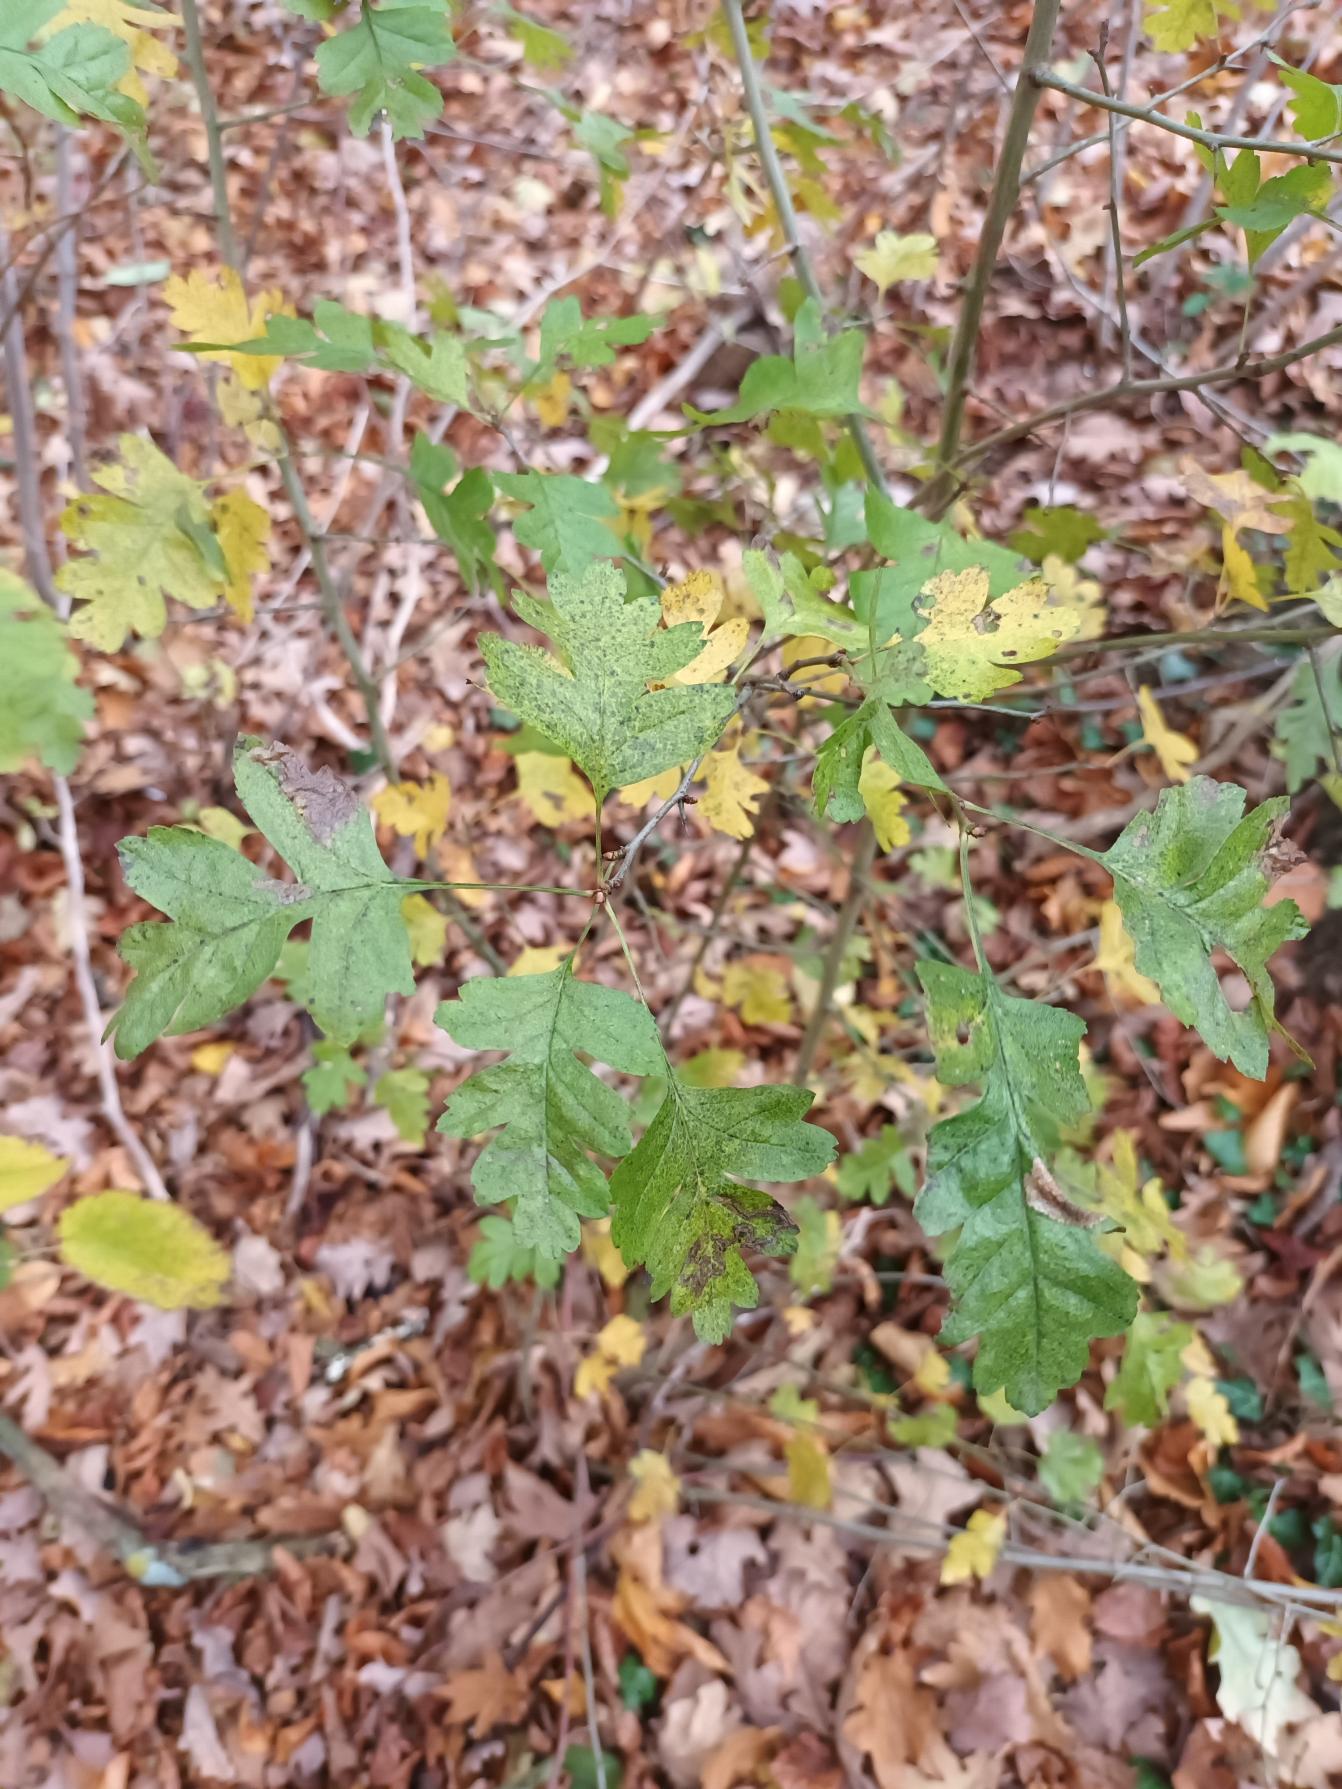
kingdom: Plantae
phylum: Tracheophyta
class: Magnoliopsida
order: Rosales
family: Rosaceae
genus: Crataegus
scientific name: Crataegus monogyna
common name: Engriflet hvidtjørn
